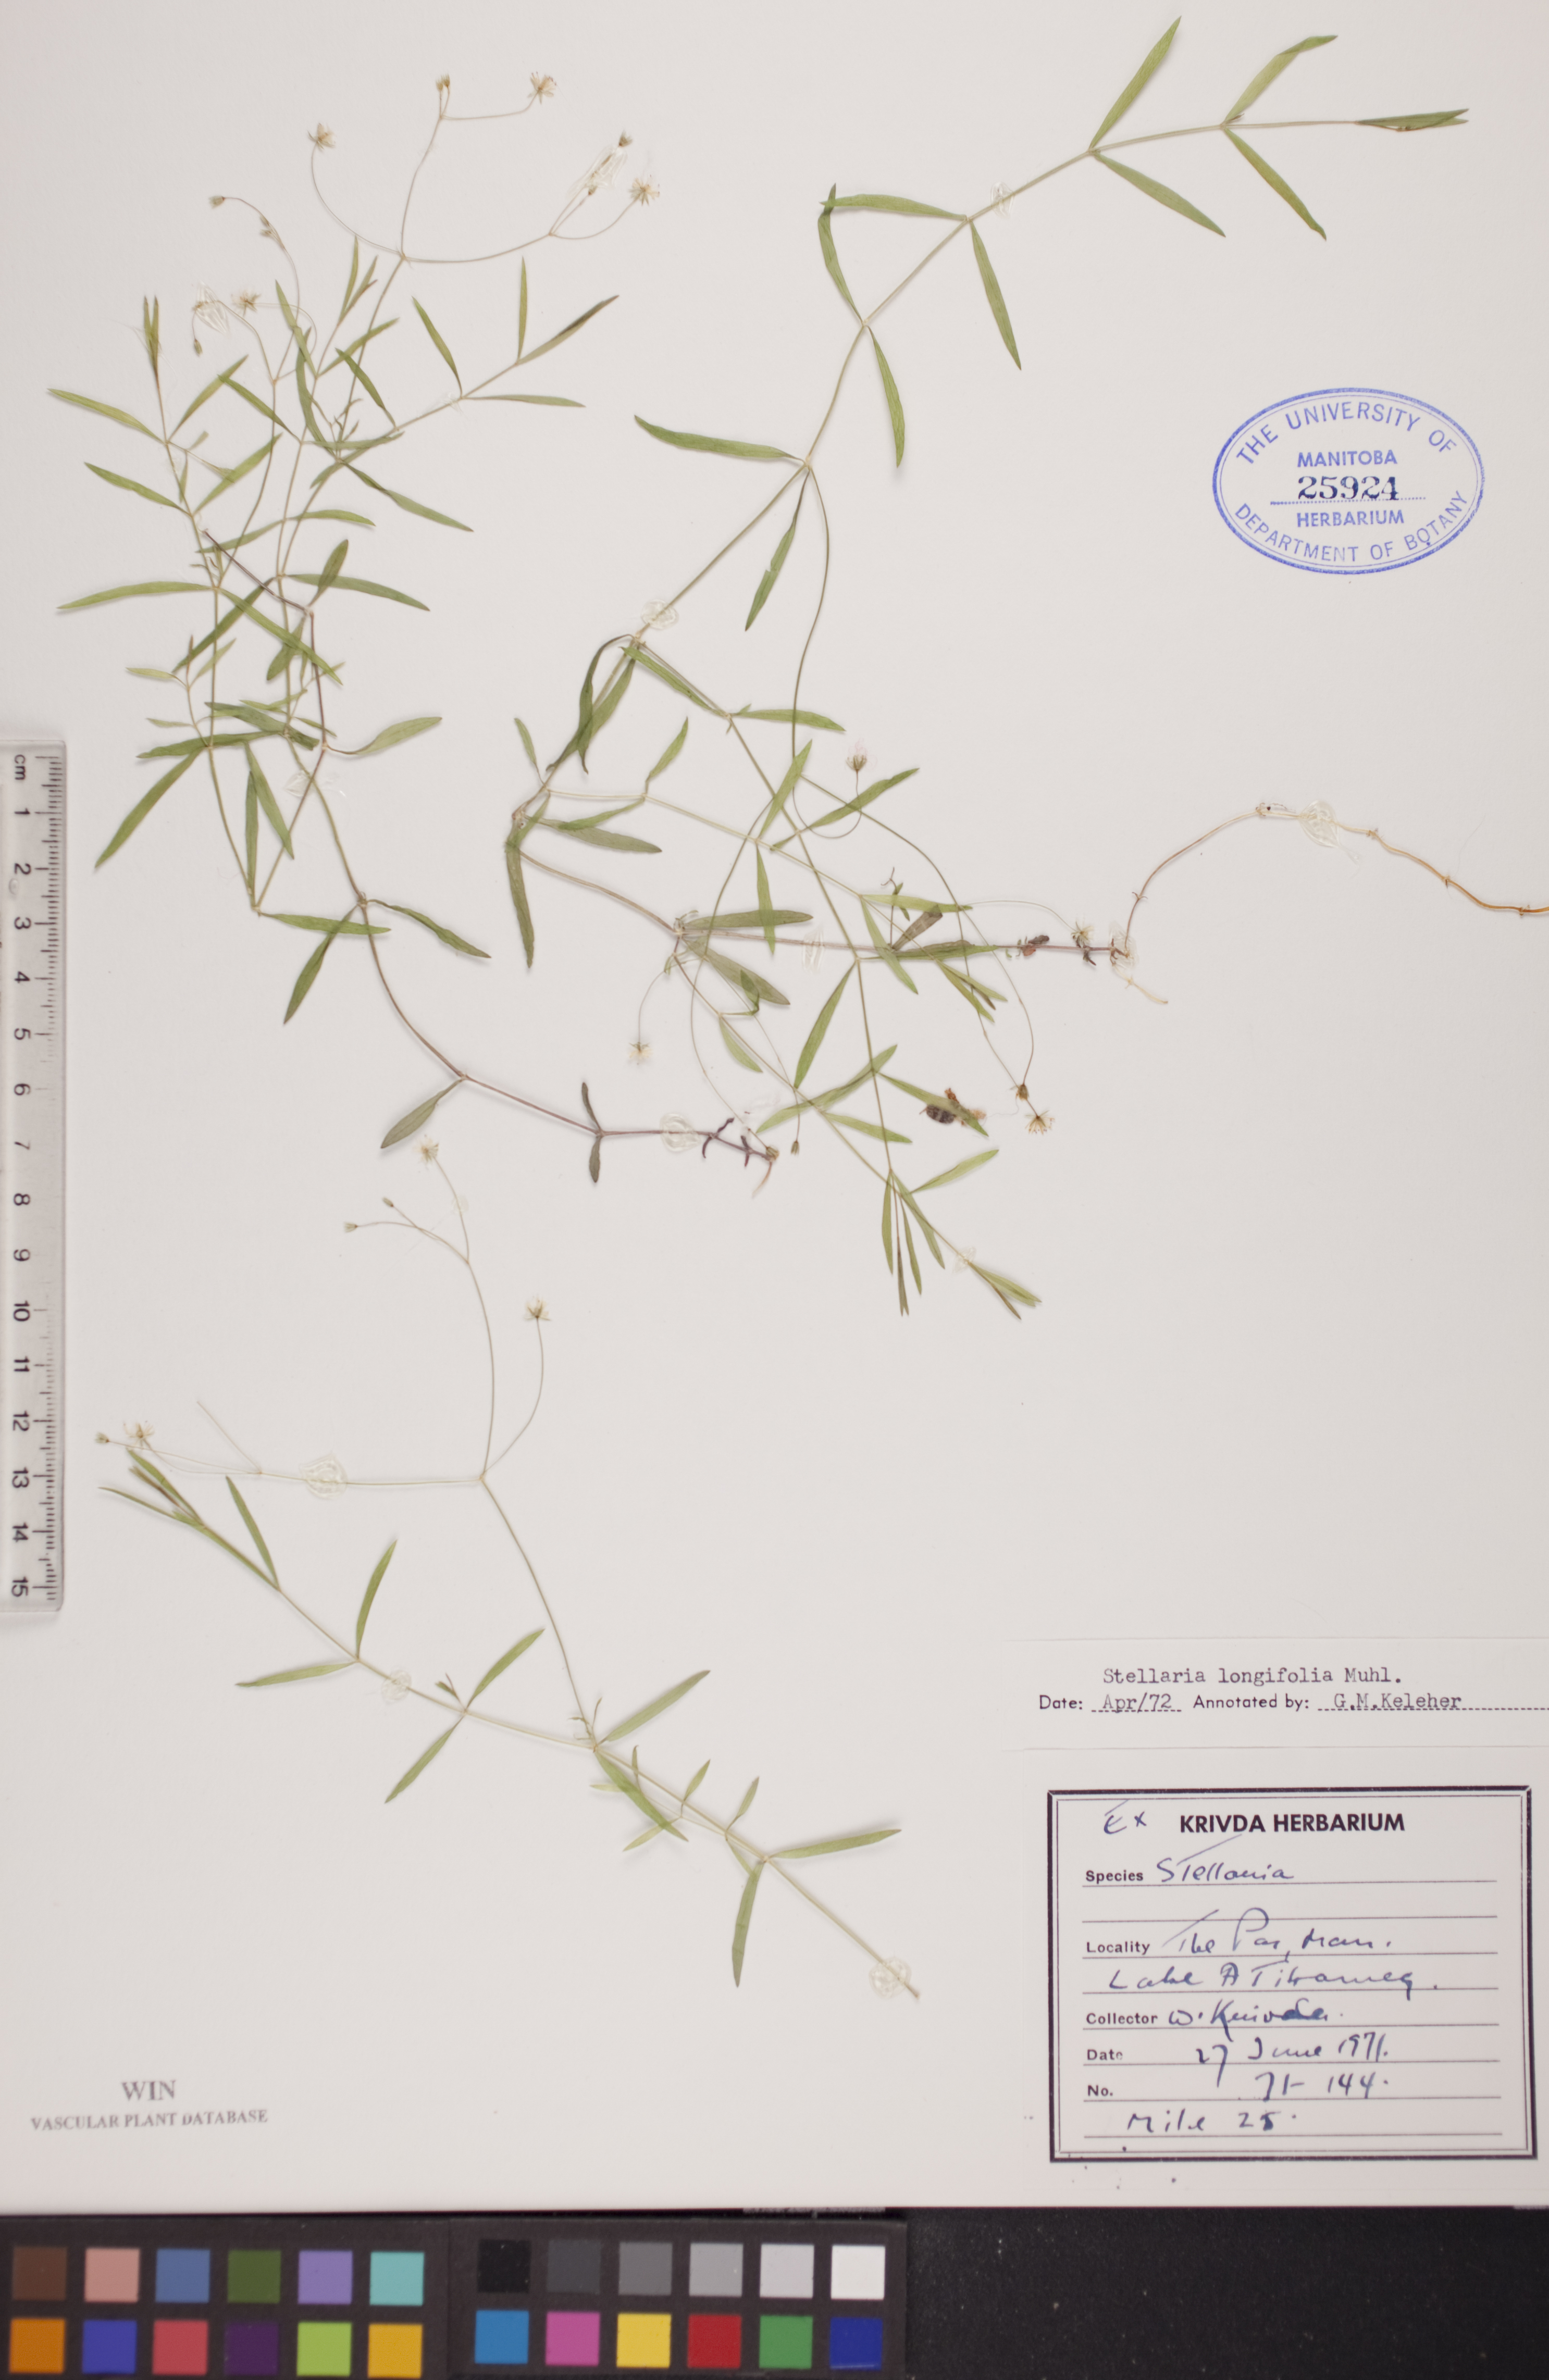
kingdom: Plantae
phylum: Tracheophyta
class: Magnoliopsida
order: Caryophyllales
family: Caryophyllaceae
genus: Stellaria
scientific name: Stellaria longifolia
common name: Long-leaved chickweed
